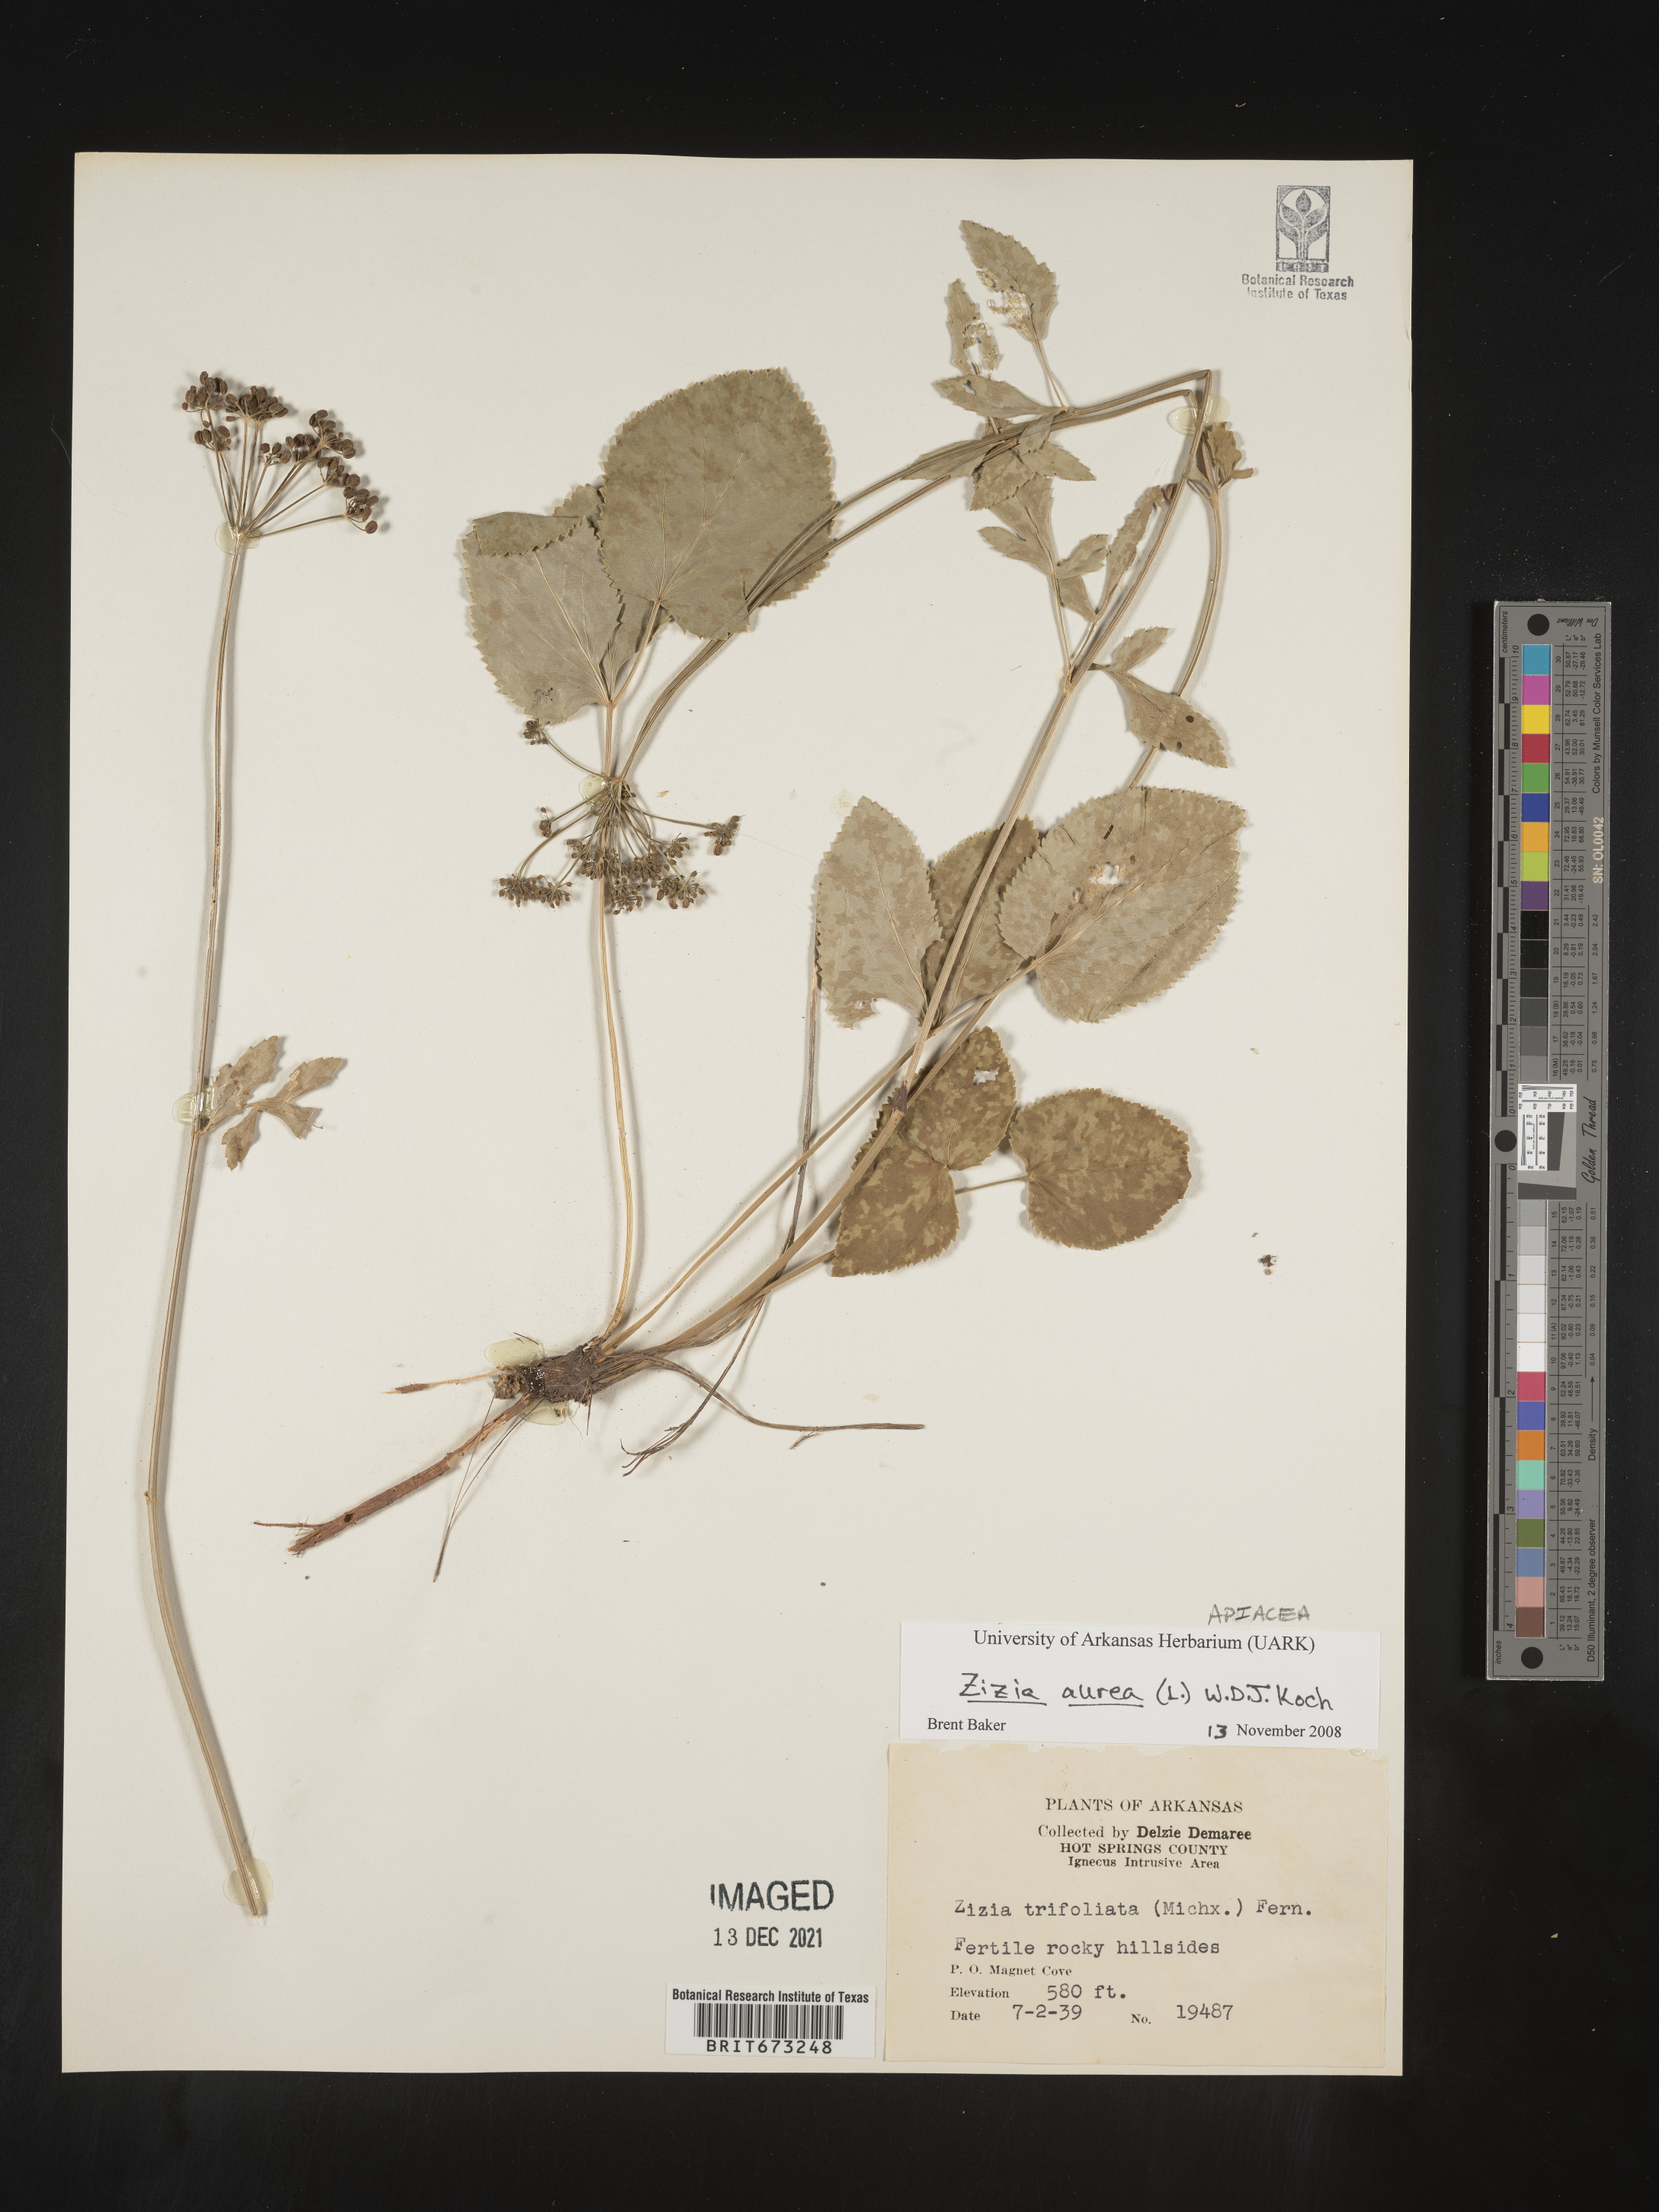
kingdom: Plantae
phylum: Tracheophyta
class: Magnoliopsida
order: Apiales
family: Apiaceae
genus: Zizia
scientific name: Zizia aurea
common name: Golden alexanders
